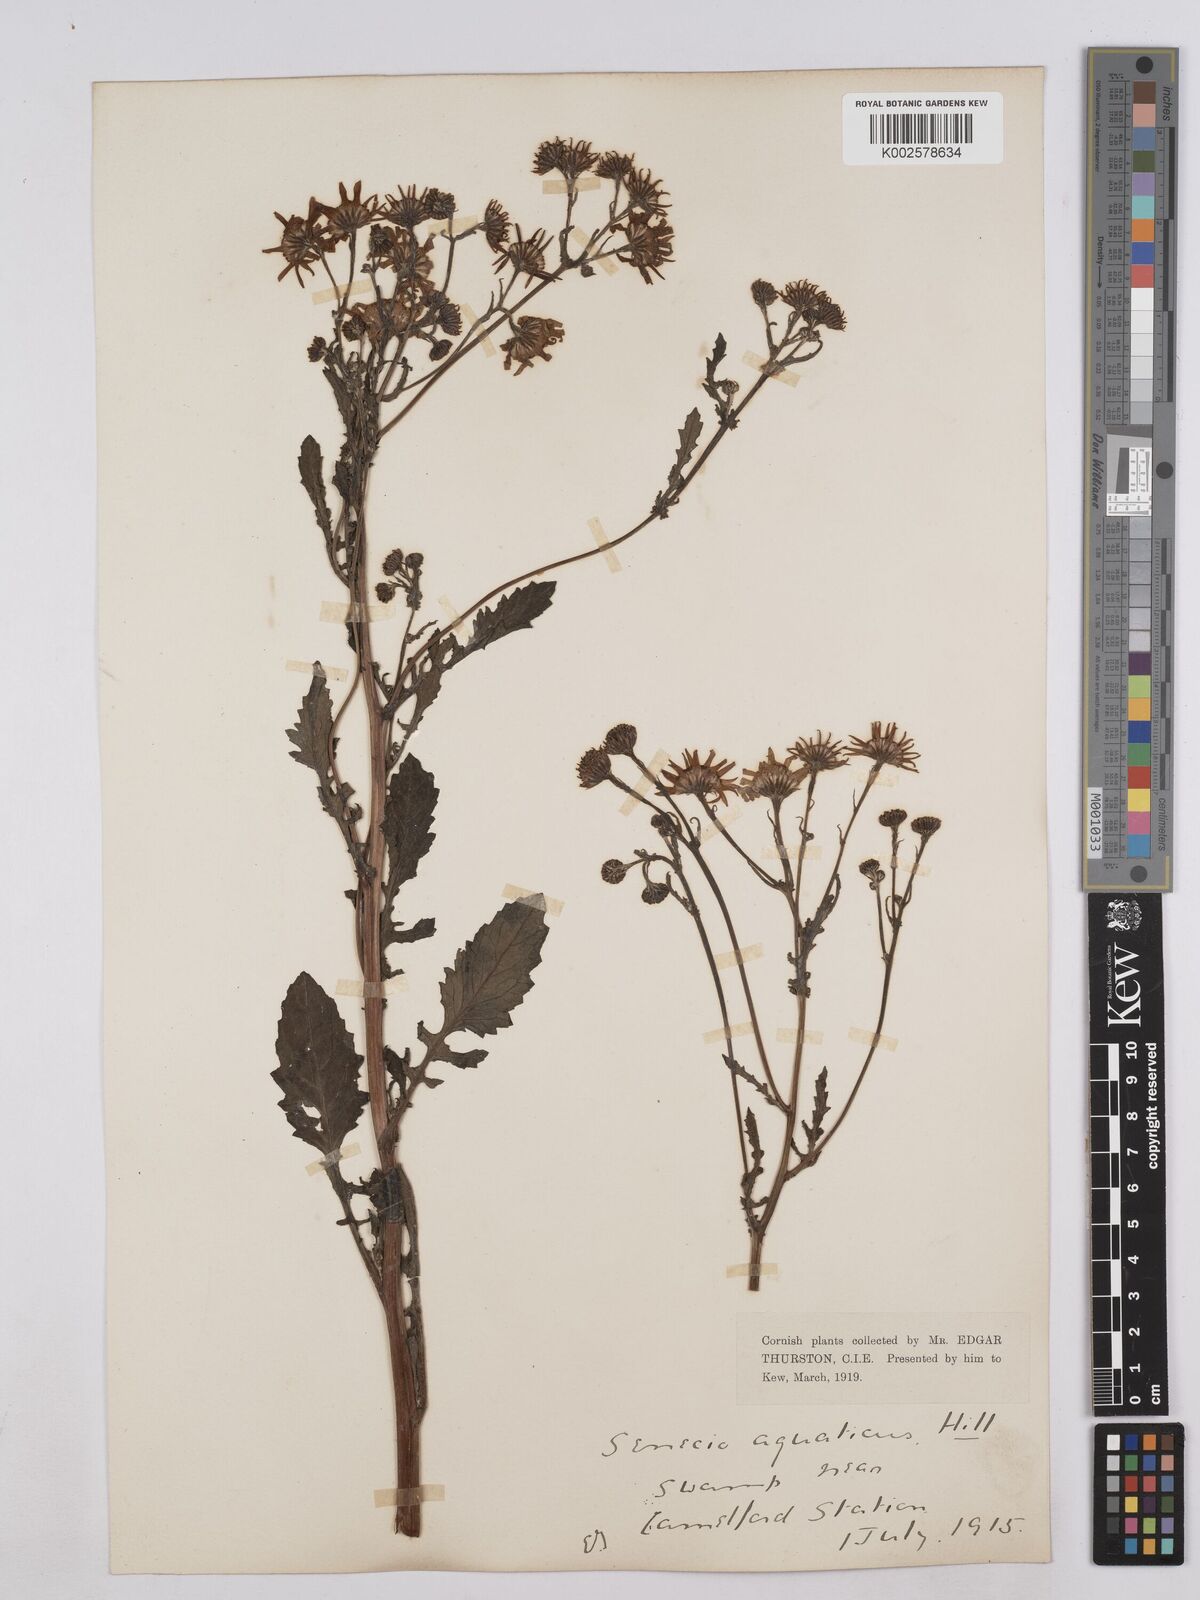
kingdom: Plantae
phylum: Tracheophyta
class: Magnoliopsida
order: Asterales
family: Asteraceae
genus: Jacobaea
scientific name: Jacobaea aquatica
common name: Water ragwort
